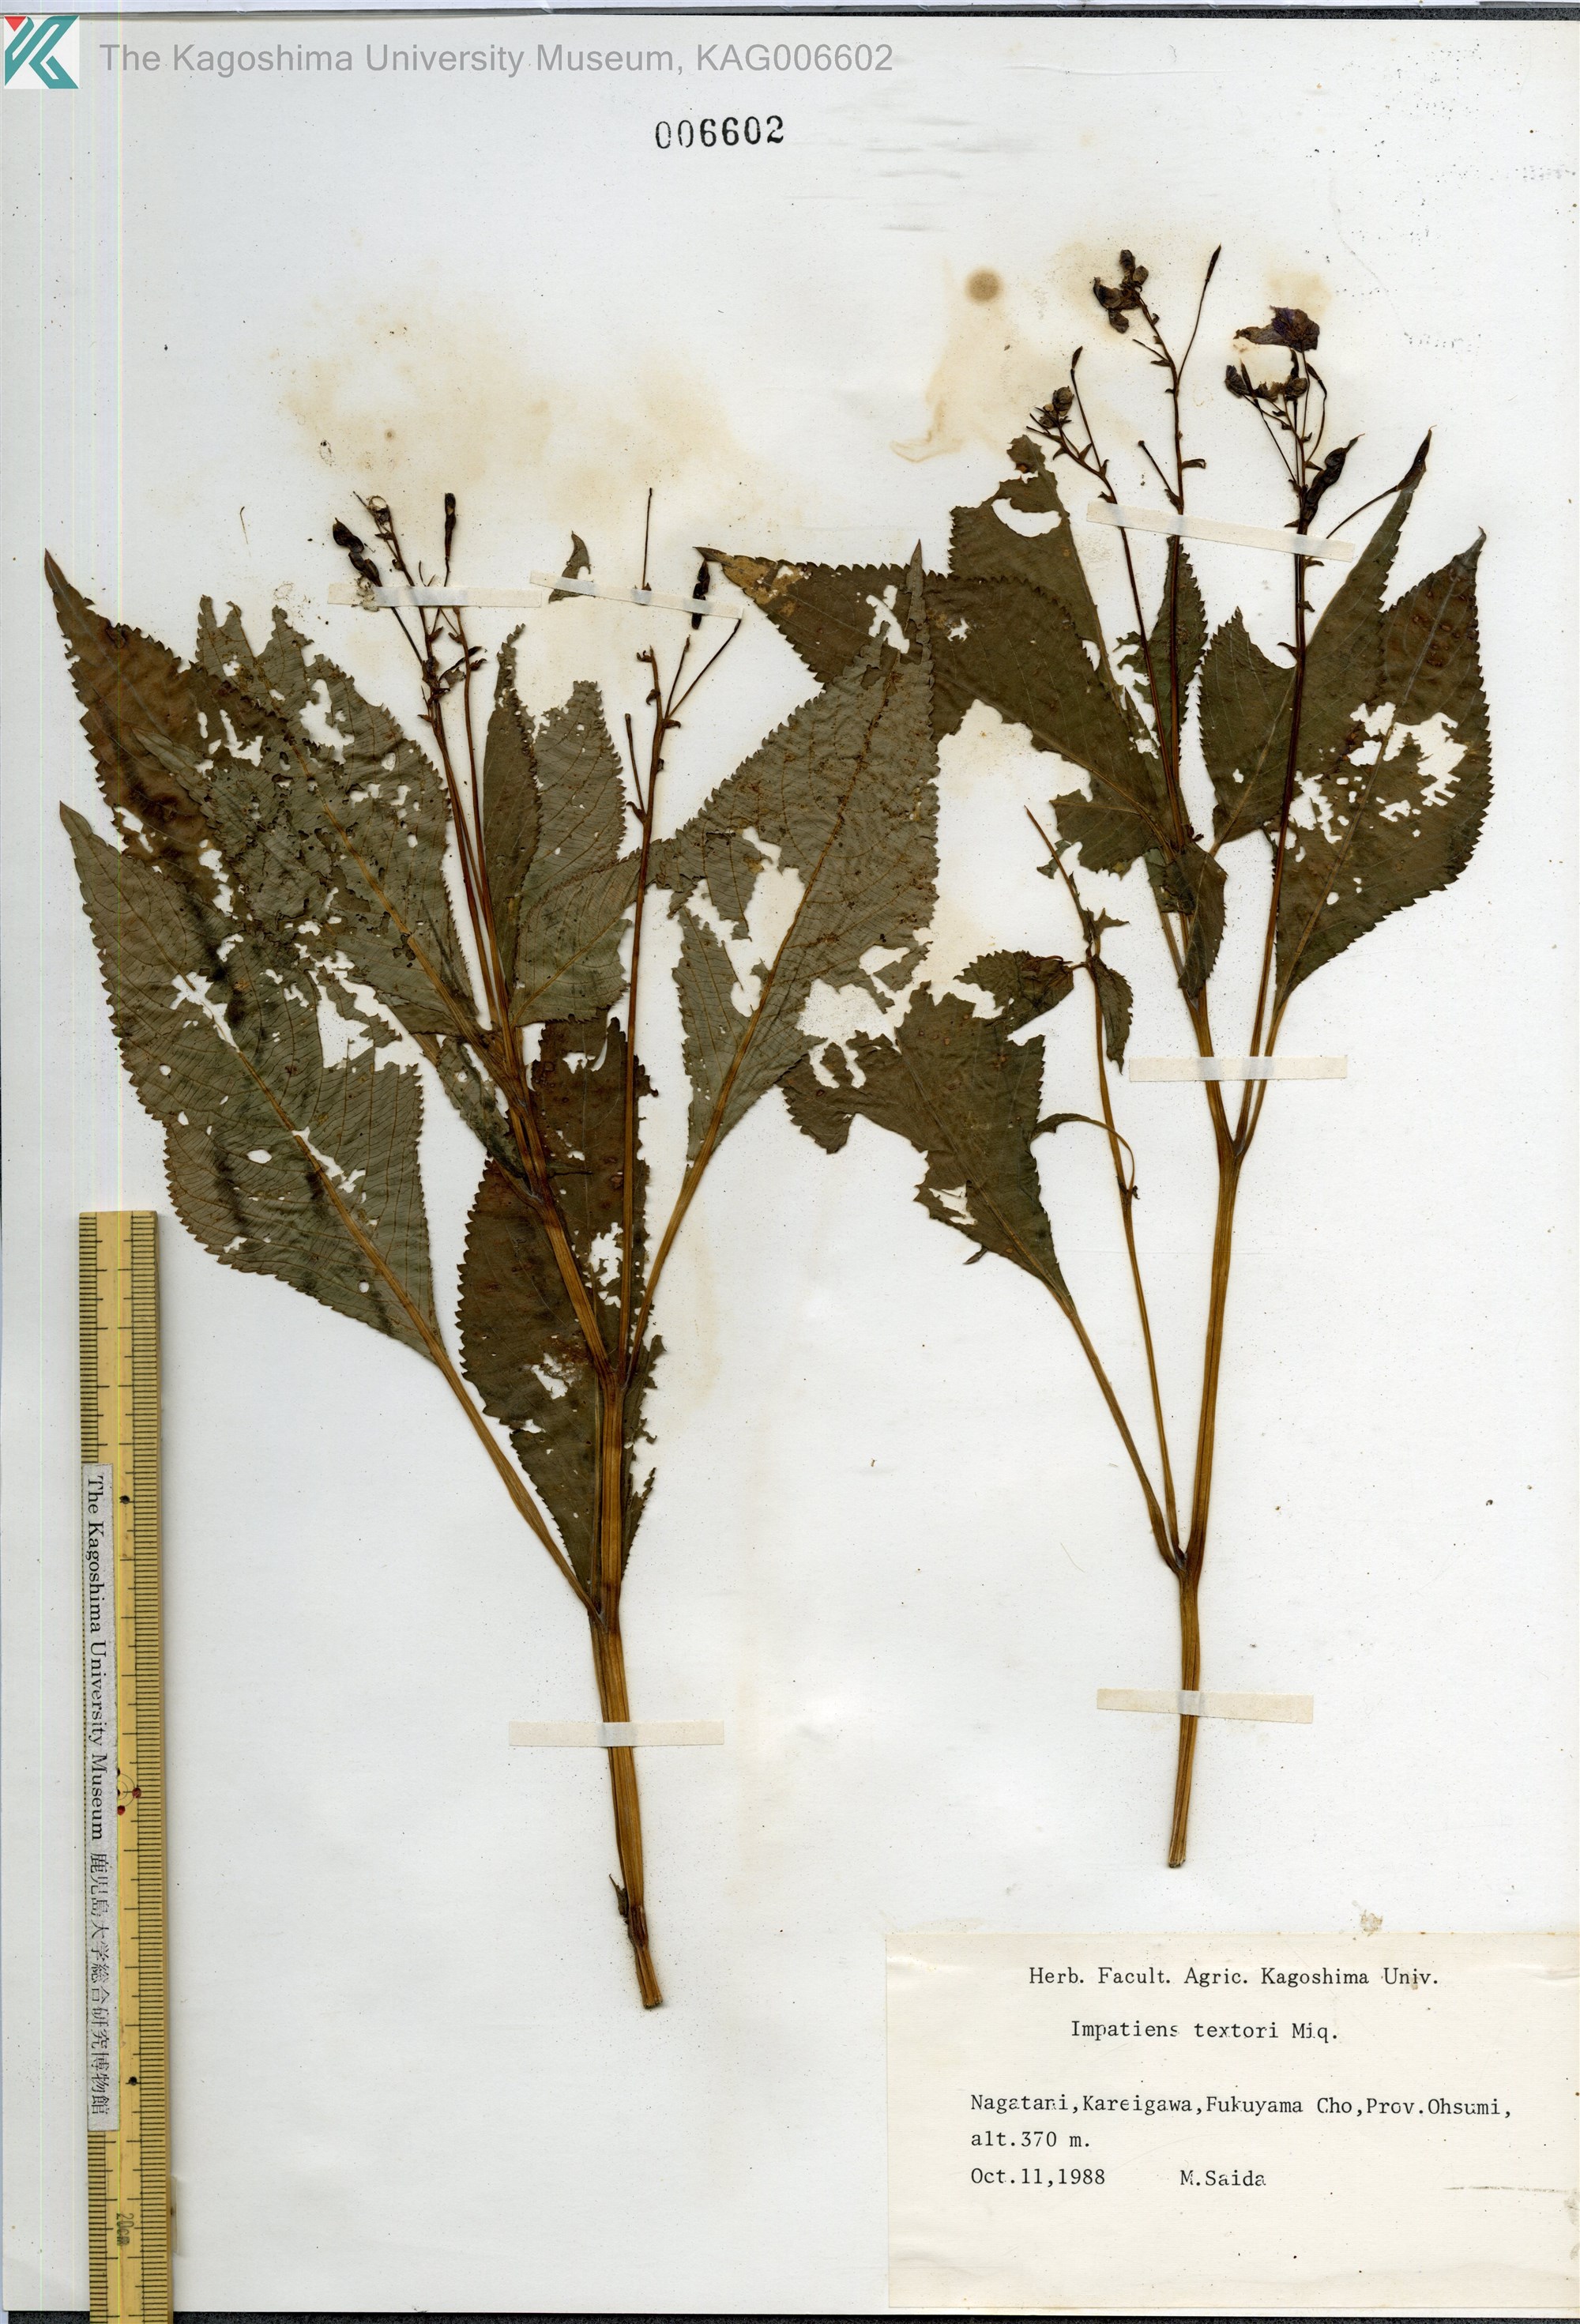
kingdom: Plantae
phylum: Tracheophyta
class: Magnoliopsida
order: Ericales
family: Balsaminaceae
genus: Impatiens
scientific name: Impatiens textorii
